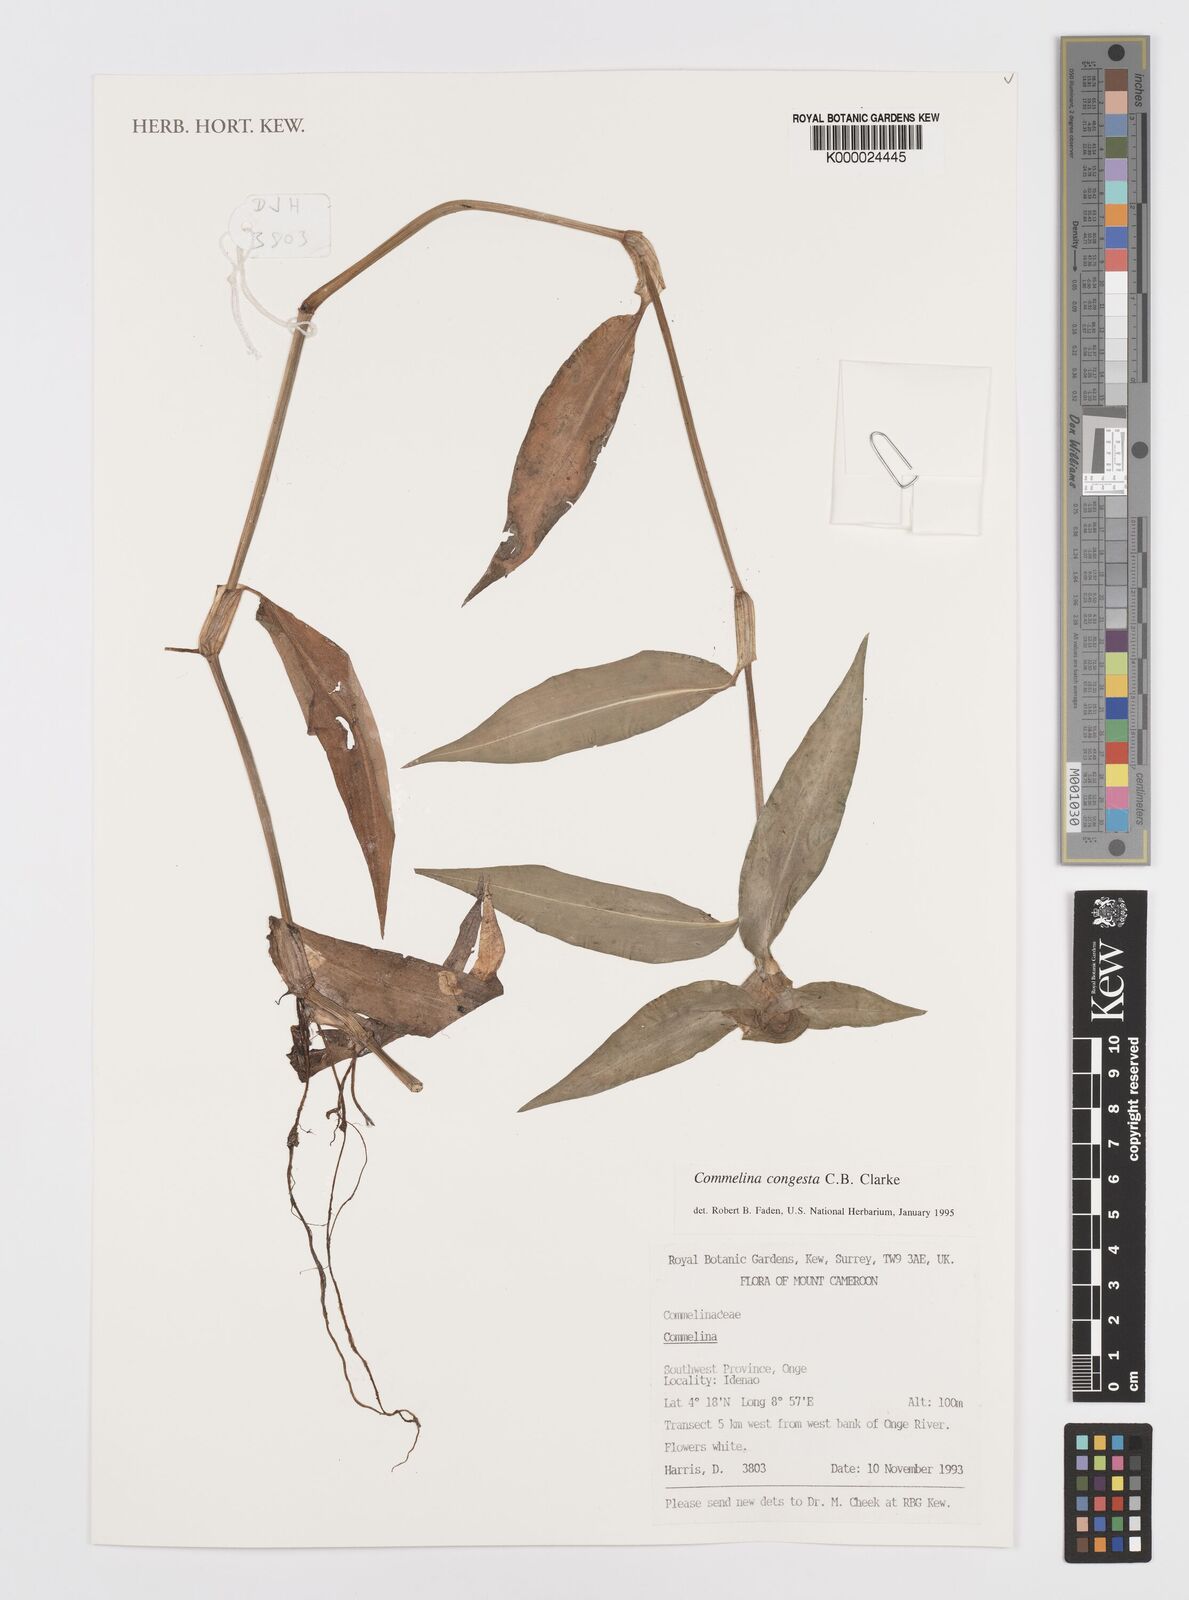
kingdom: Plantae
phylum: Tracheophyta
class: Liliopsida
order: Commelinales
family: Commelinaceae
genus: Commelina
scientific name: Commelina congesta
